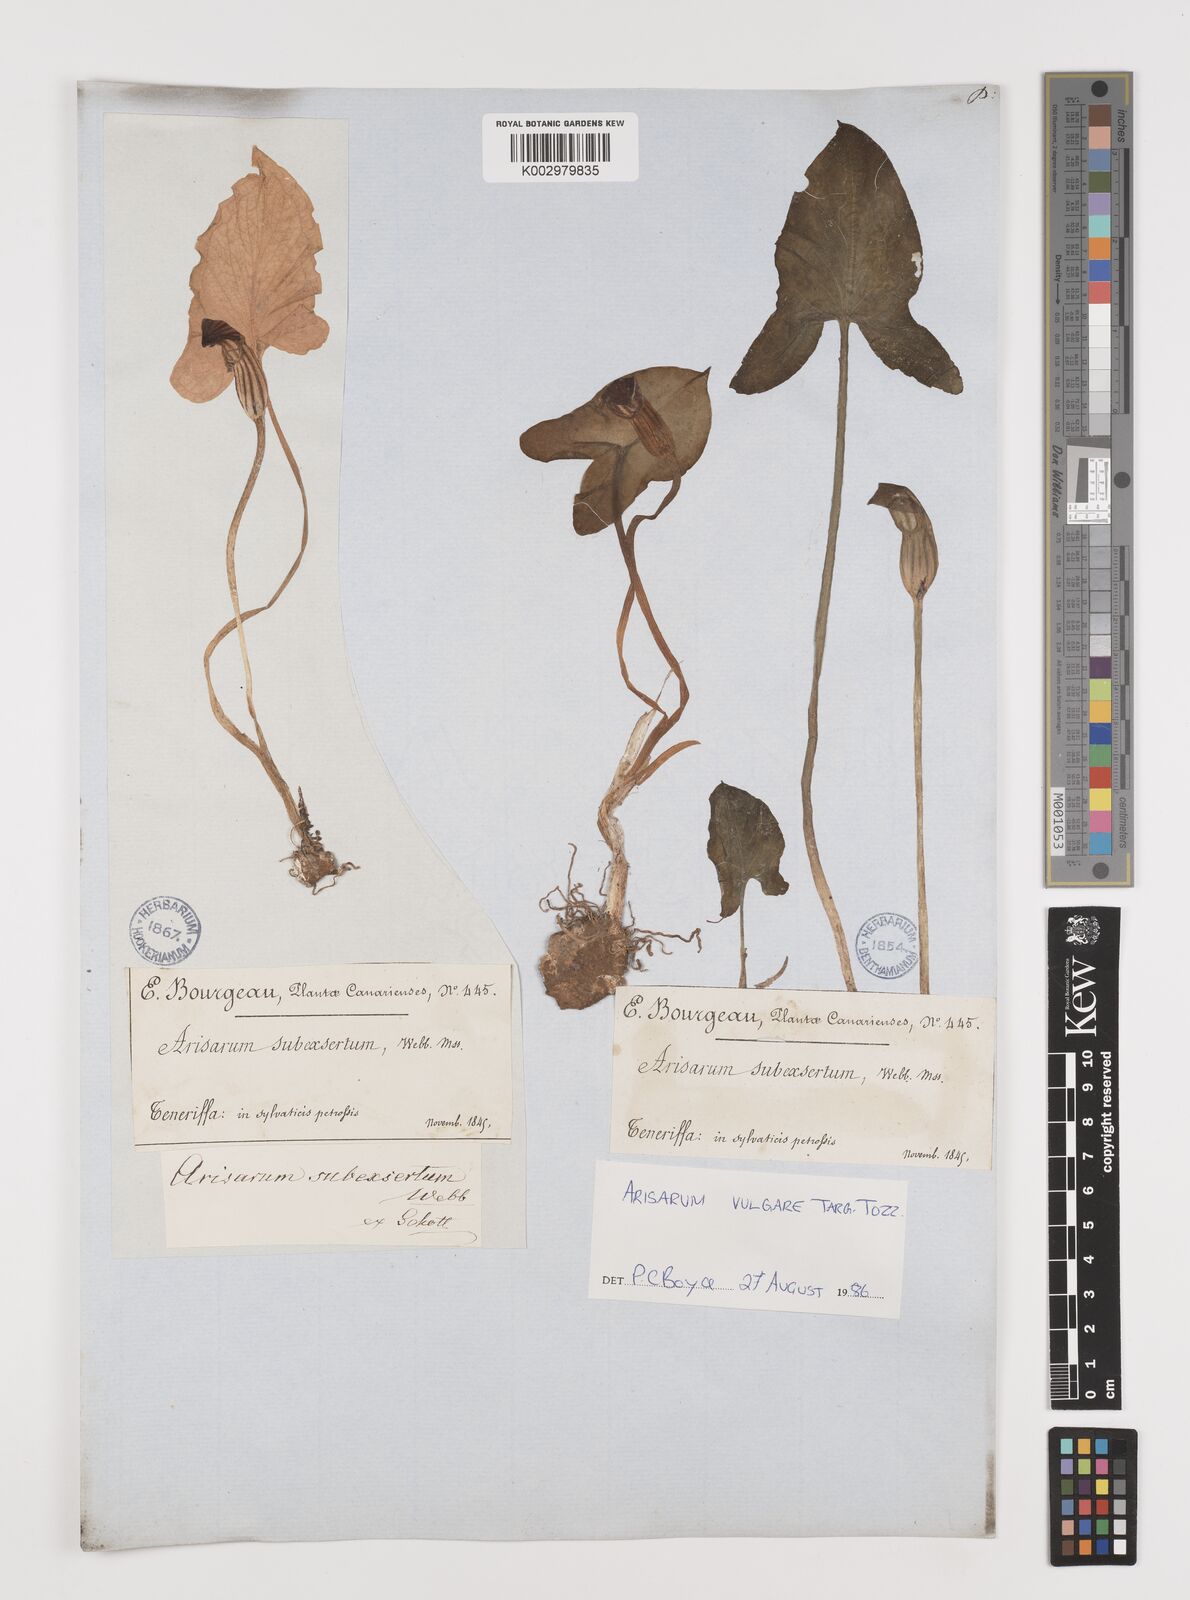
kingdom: Plantae
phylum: Tracheophyta
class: Liliopsida
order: Alismatales
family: Araceae
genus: Arisarum
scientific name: Arisarum vulgare
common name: Common arisarum
